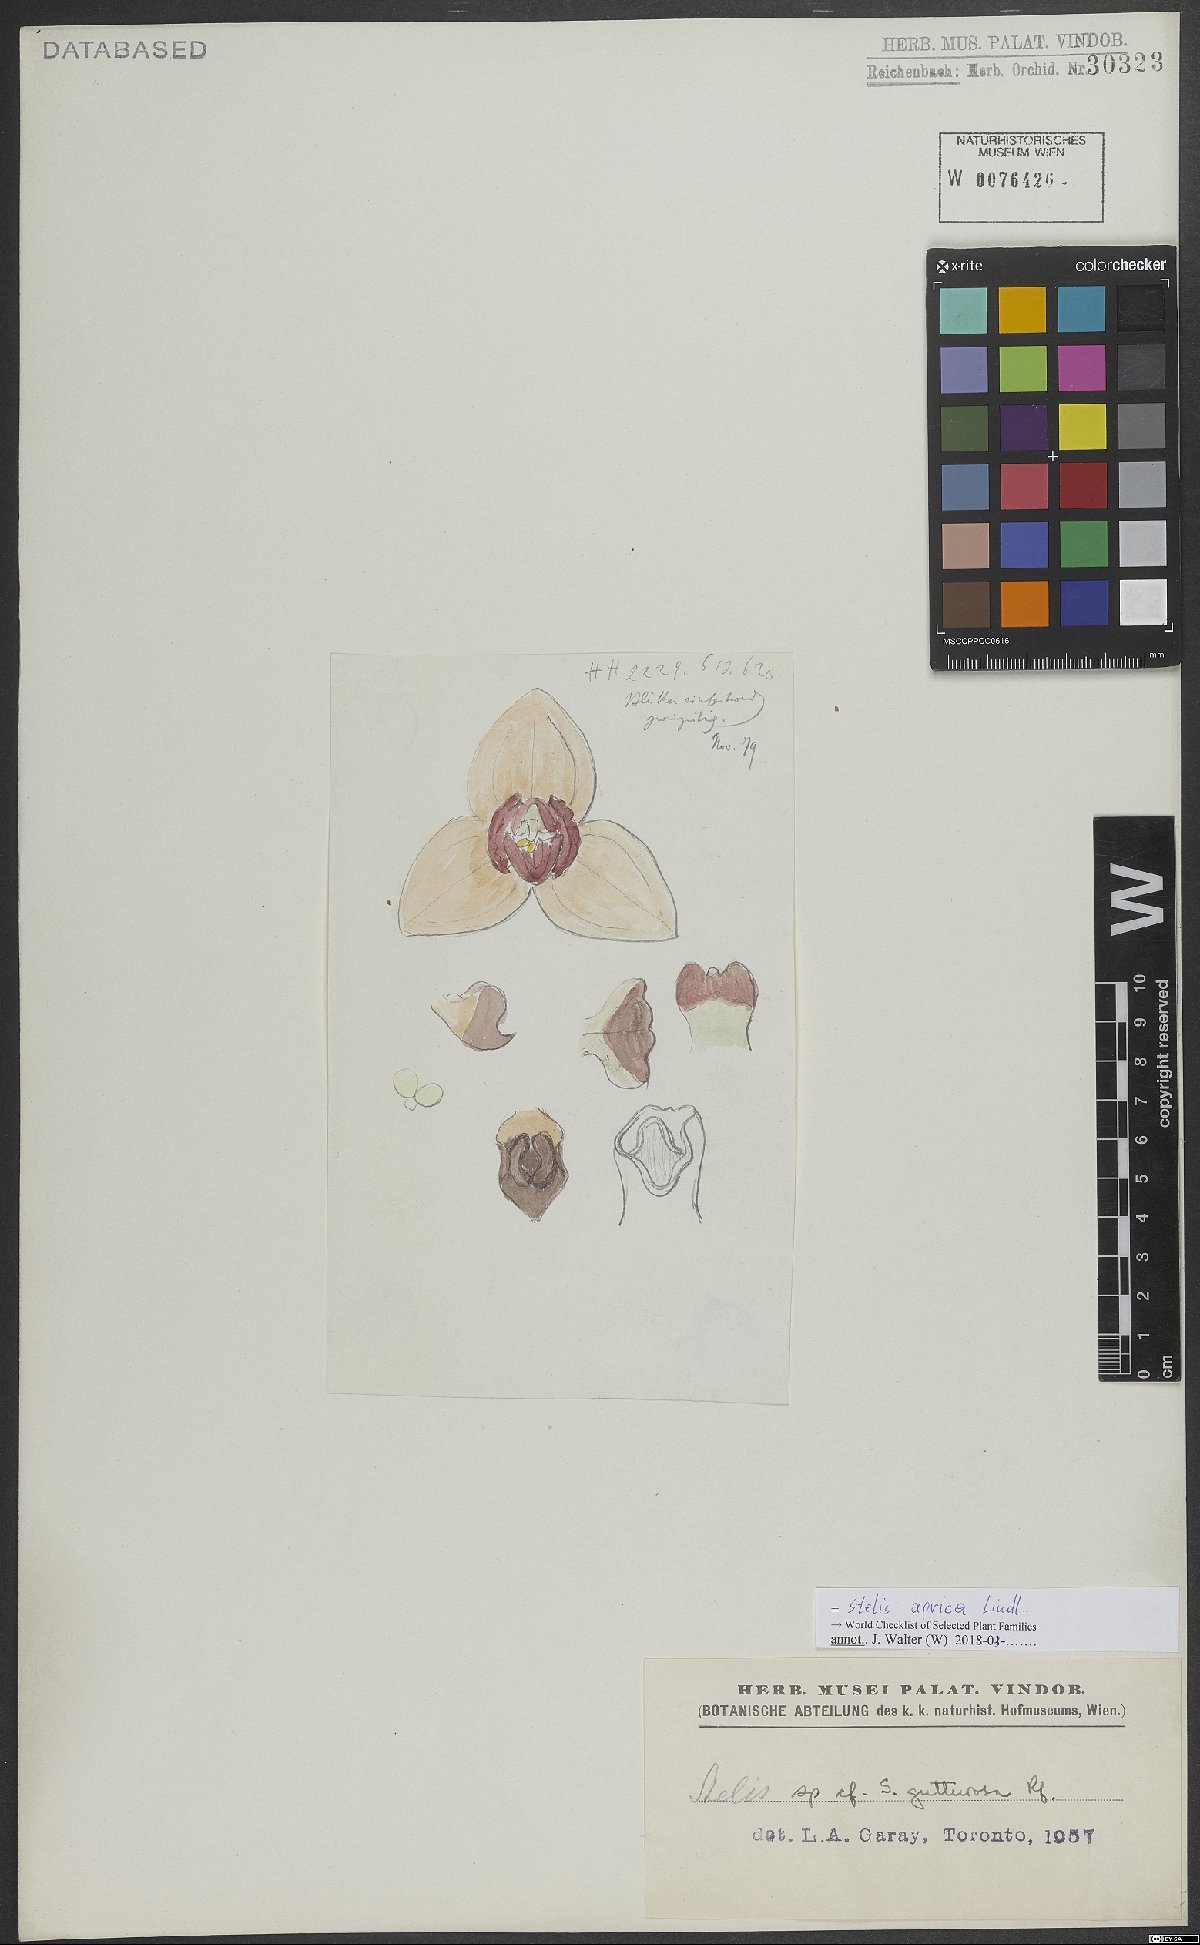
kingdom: Plantae
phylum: Tracheophyta
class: Liliopsida
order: Asparagales
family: Orchidaceae
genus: Stelis
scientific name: Stelis aprica
